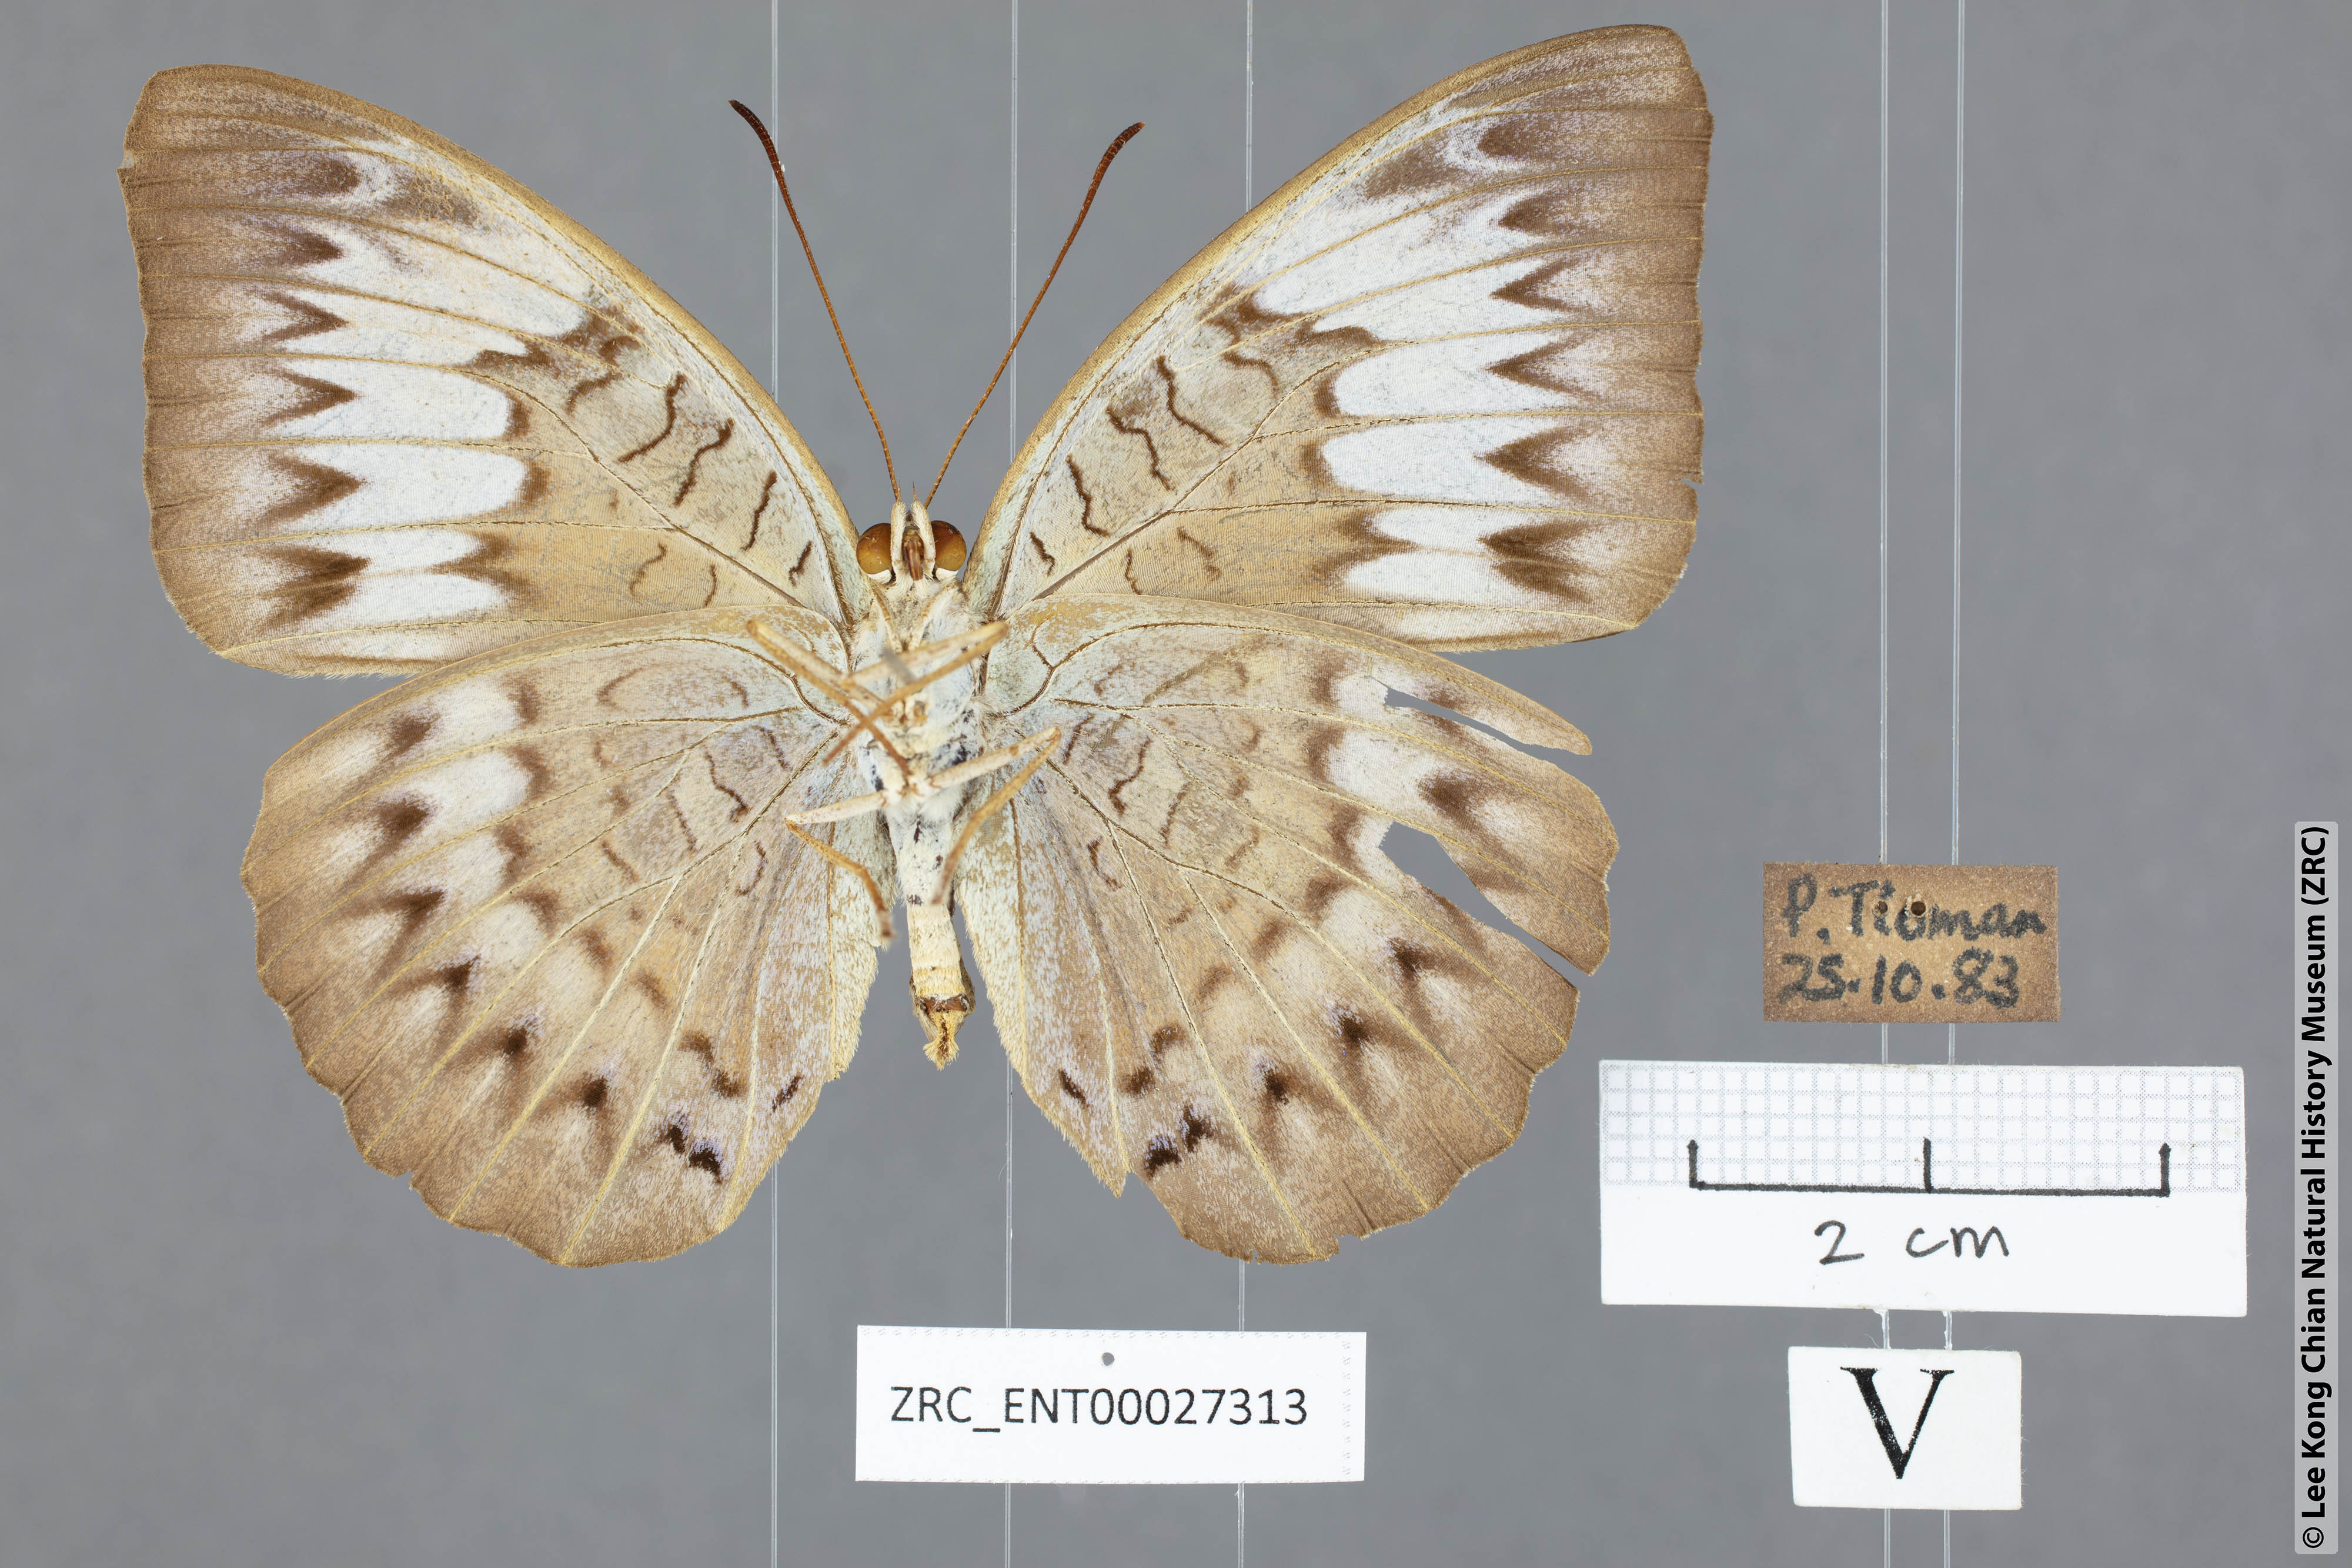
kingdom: Animalia
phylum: Arthropoda
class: Insecta
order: Lepidoptera
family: Nymphalidae
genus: Tanaecia
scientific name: Tanaecia pelea
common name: Malay viscount
